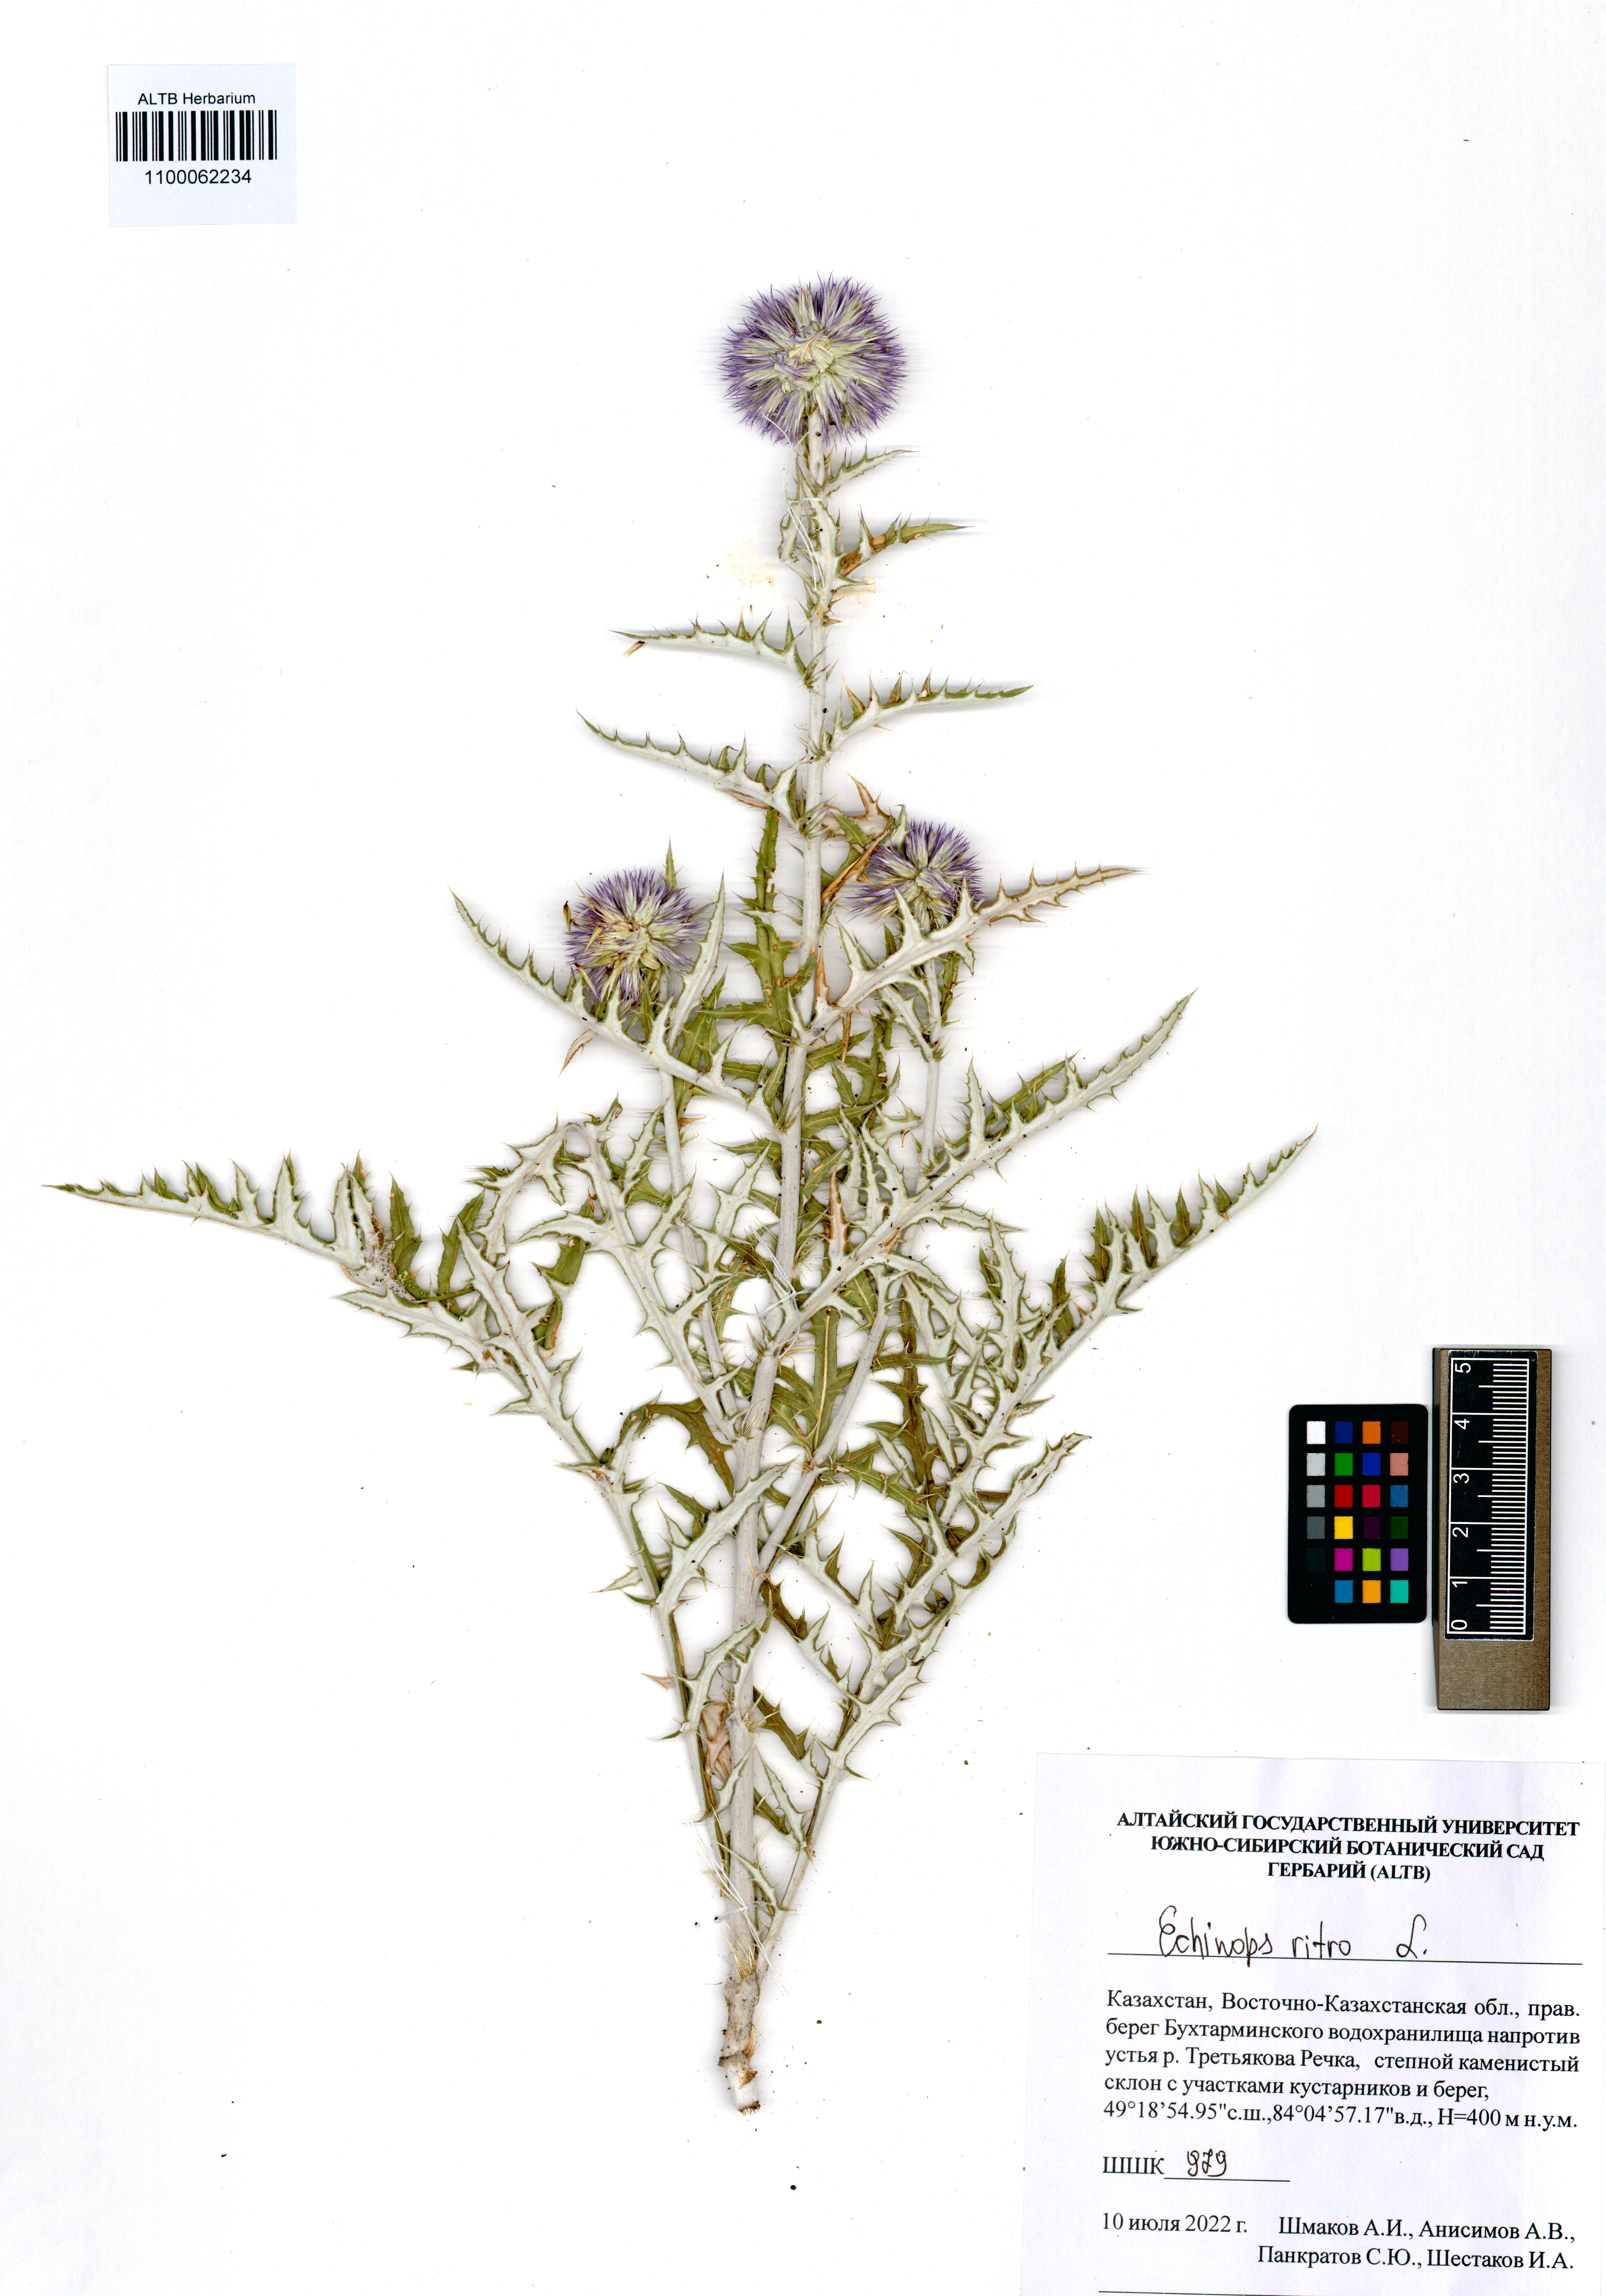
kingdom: Plantae
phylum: Tracheophyta
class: Magnoliopsida
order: Asterales
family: Asteraceae
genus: Echinops
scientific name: Echinops ritro
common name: Globe thistle
